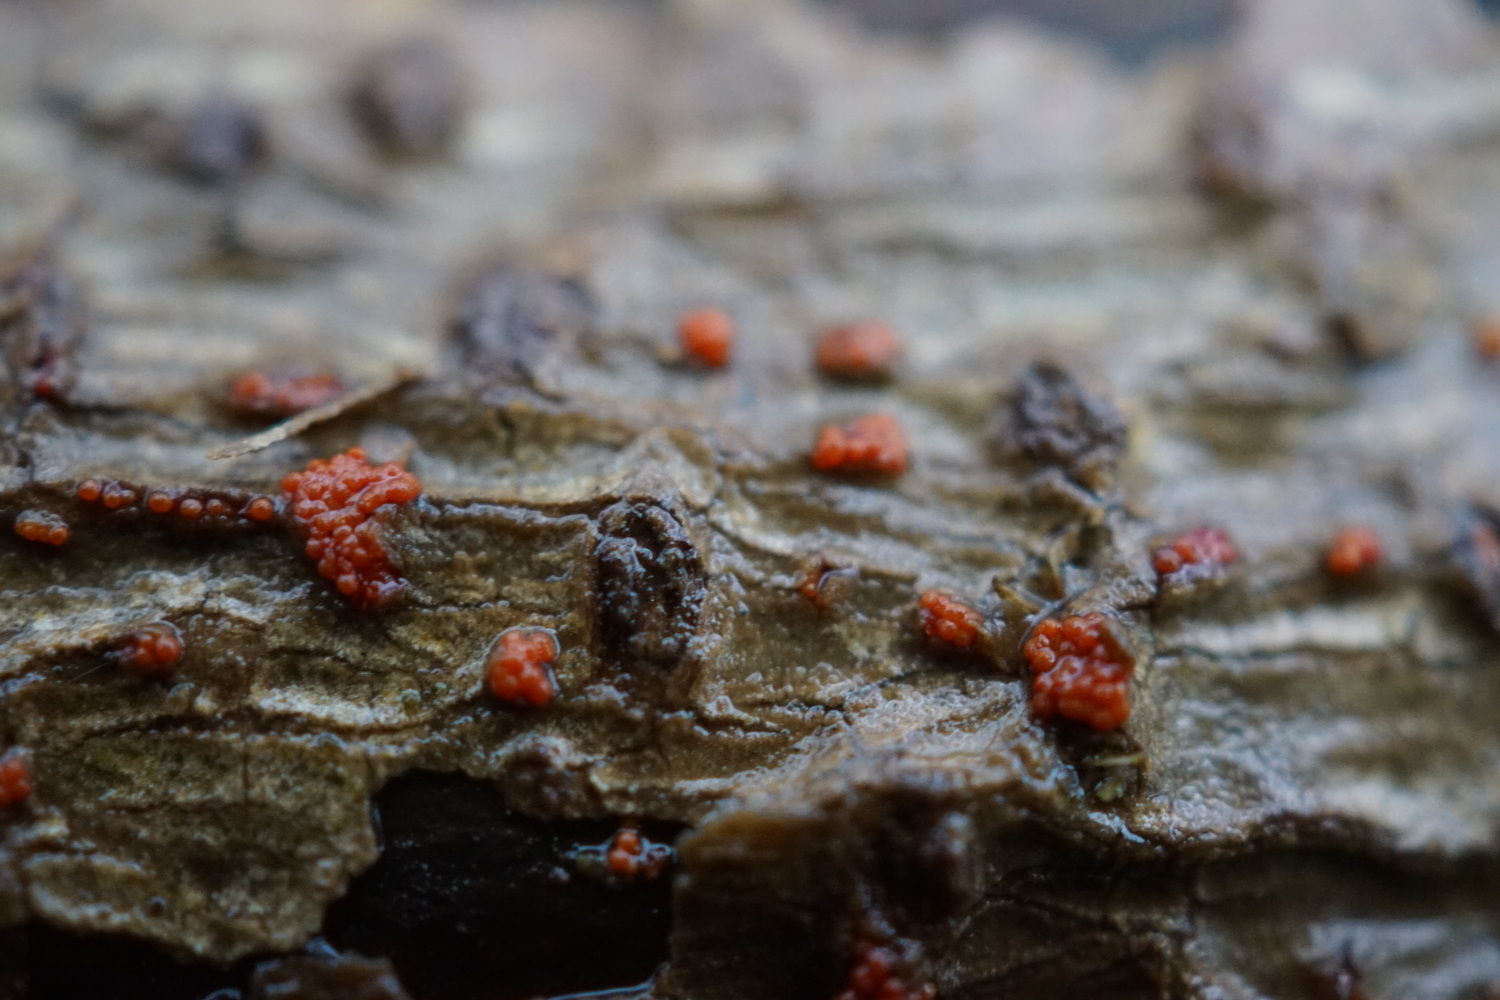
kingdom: Fungi
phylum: Ascomycota
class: Sordariomycetes
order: Hypocreales
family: Nectriaceae
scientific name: Nectriaceae
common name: cinnobersvampfamilien
